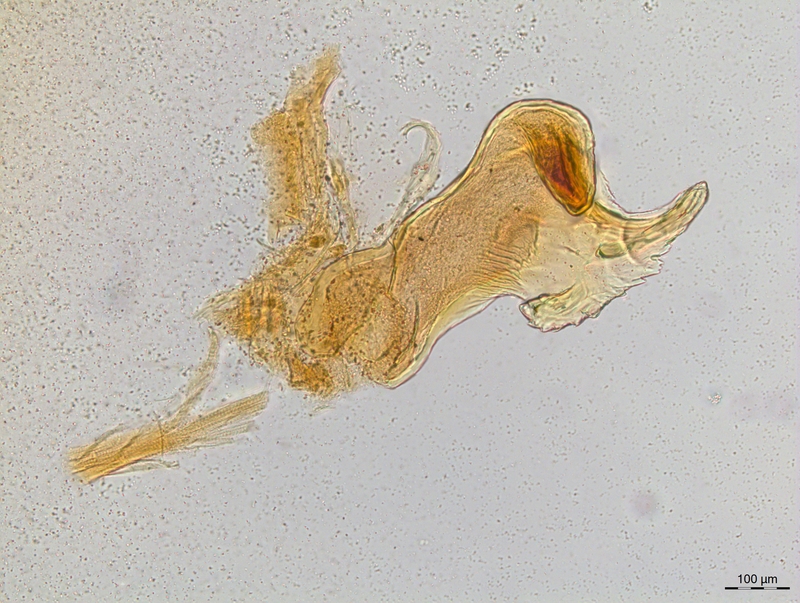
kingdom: Animalia
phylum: Arthropoda
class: Diplopoda
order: Chordeumatida
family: Craspedosomatidae
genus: Craspedosoma
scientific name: Craspedosoma transsilvanicum
